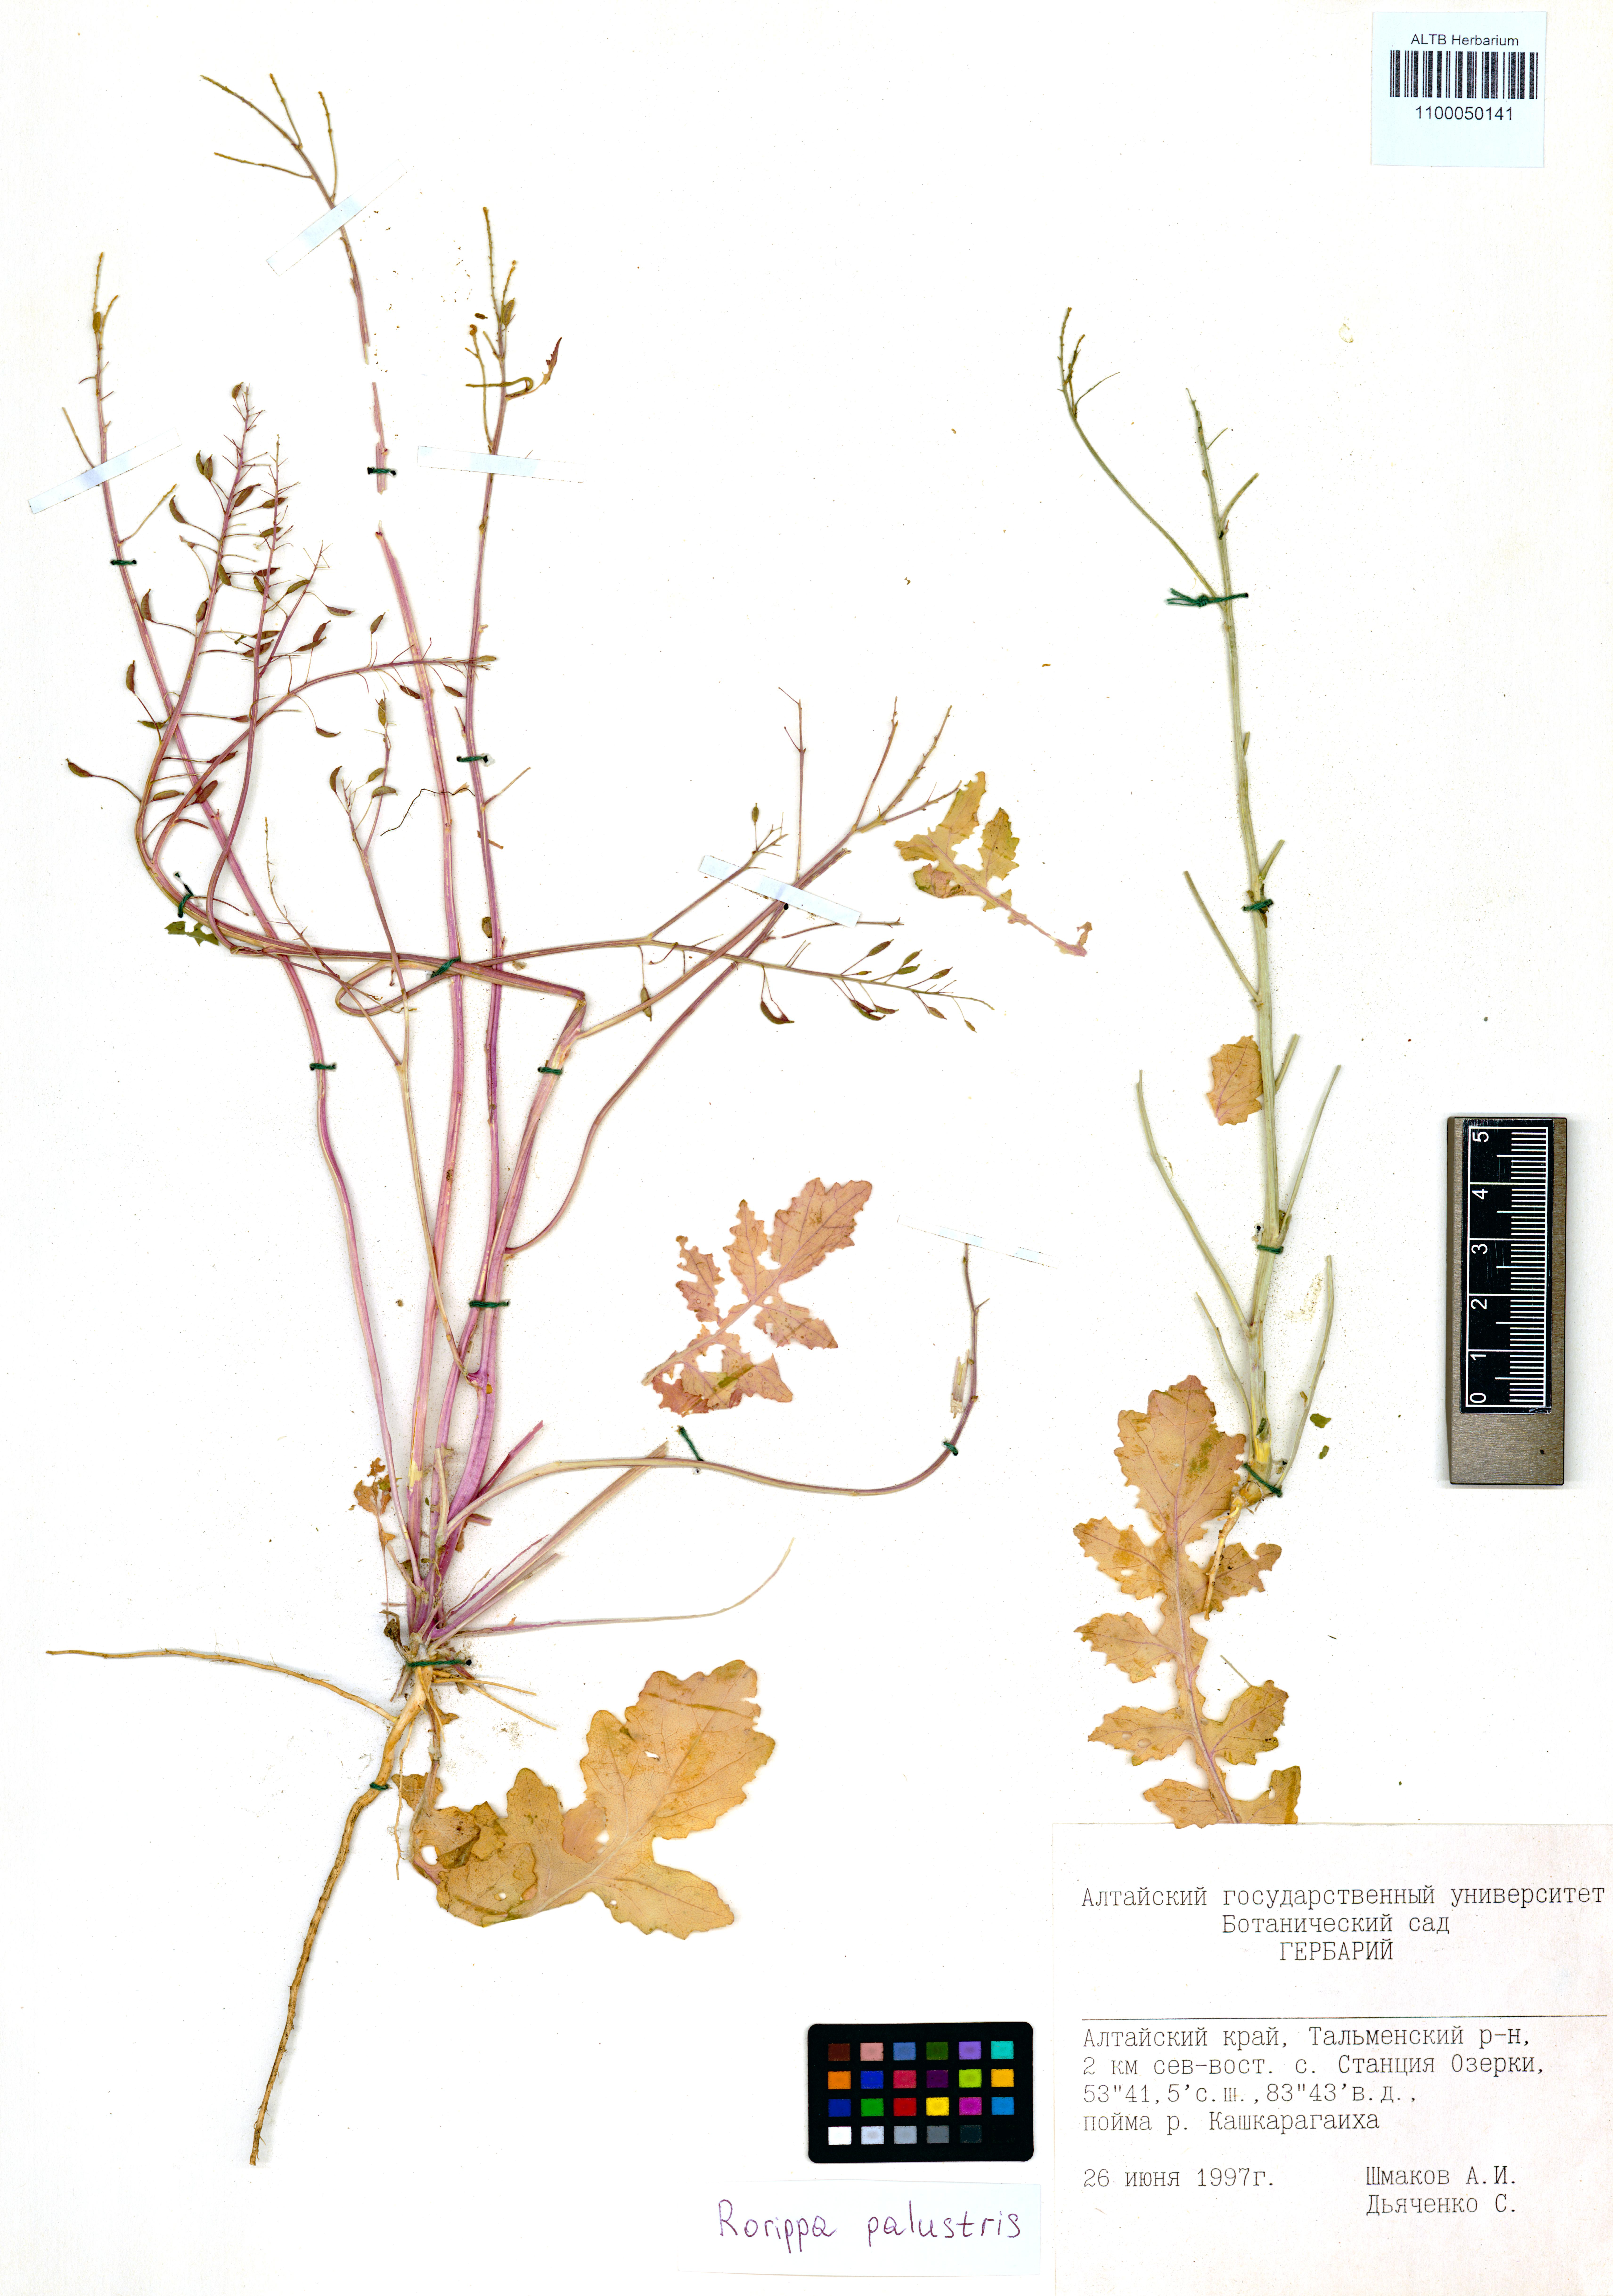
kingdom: Plantae
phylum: Tracheophyta
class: Magnoliopsida
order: Brassicales
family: Brassicaceae
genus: Rorippa
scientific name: Rorippa palustris
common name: Marsh yellow-cress
